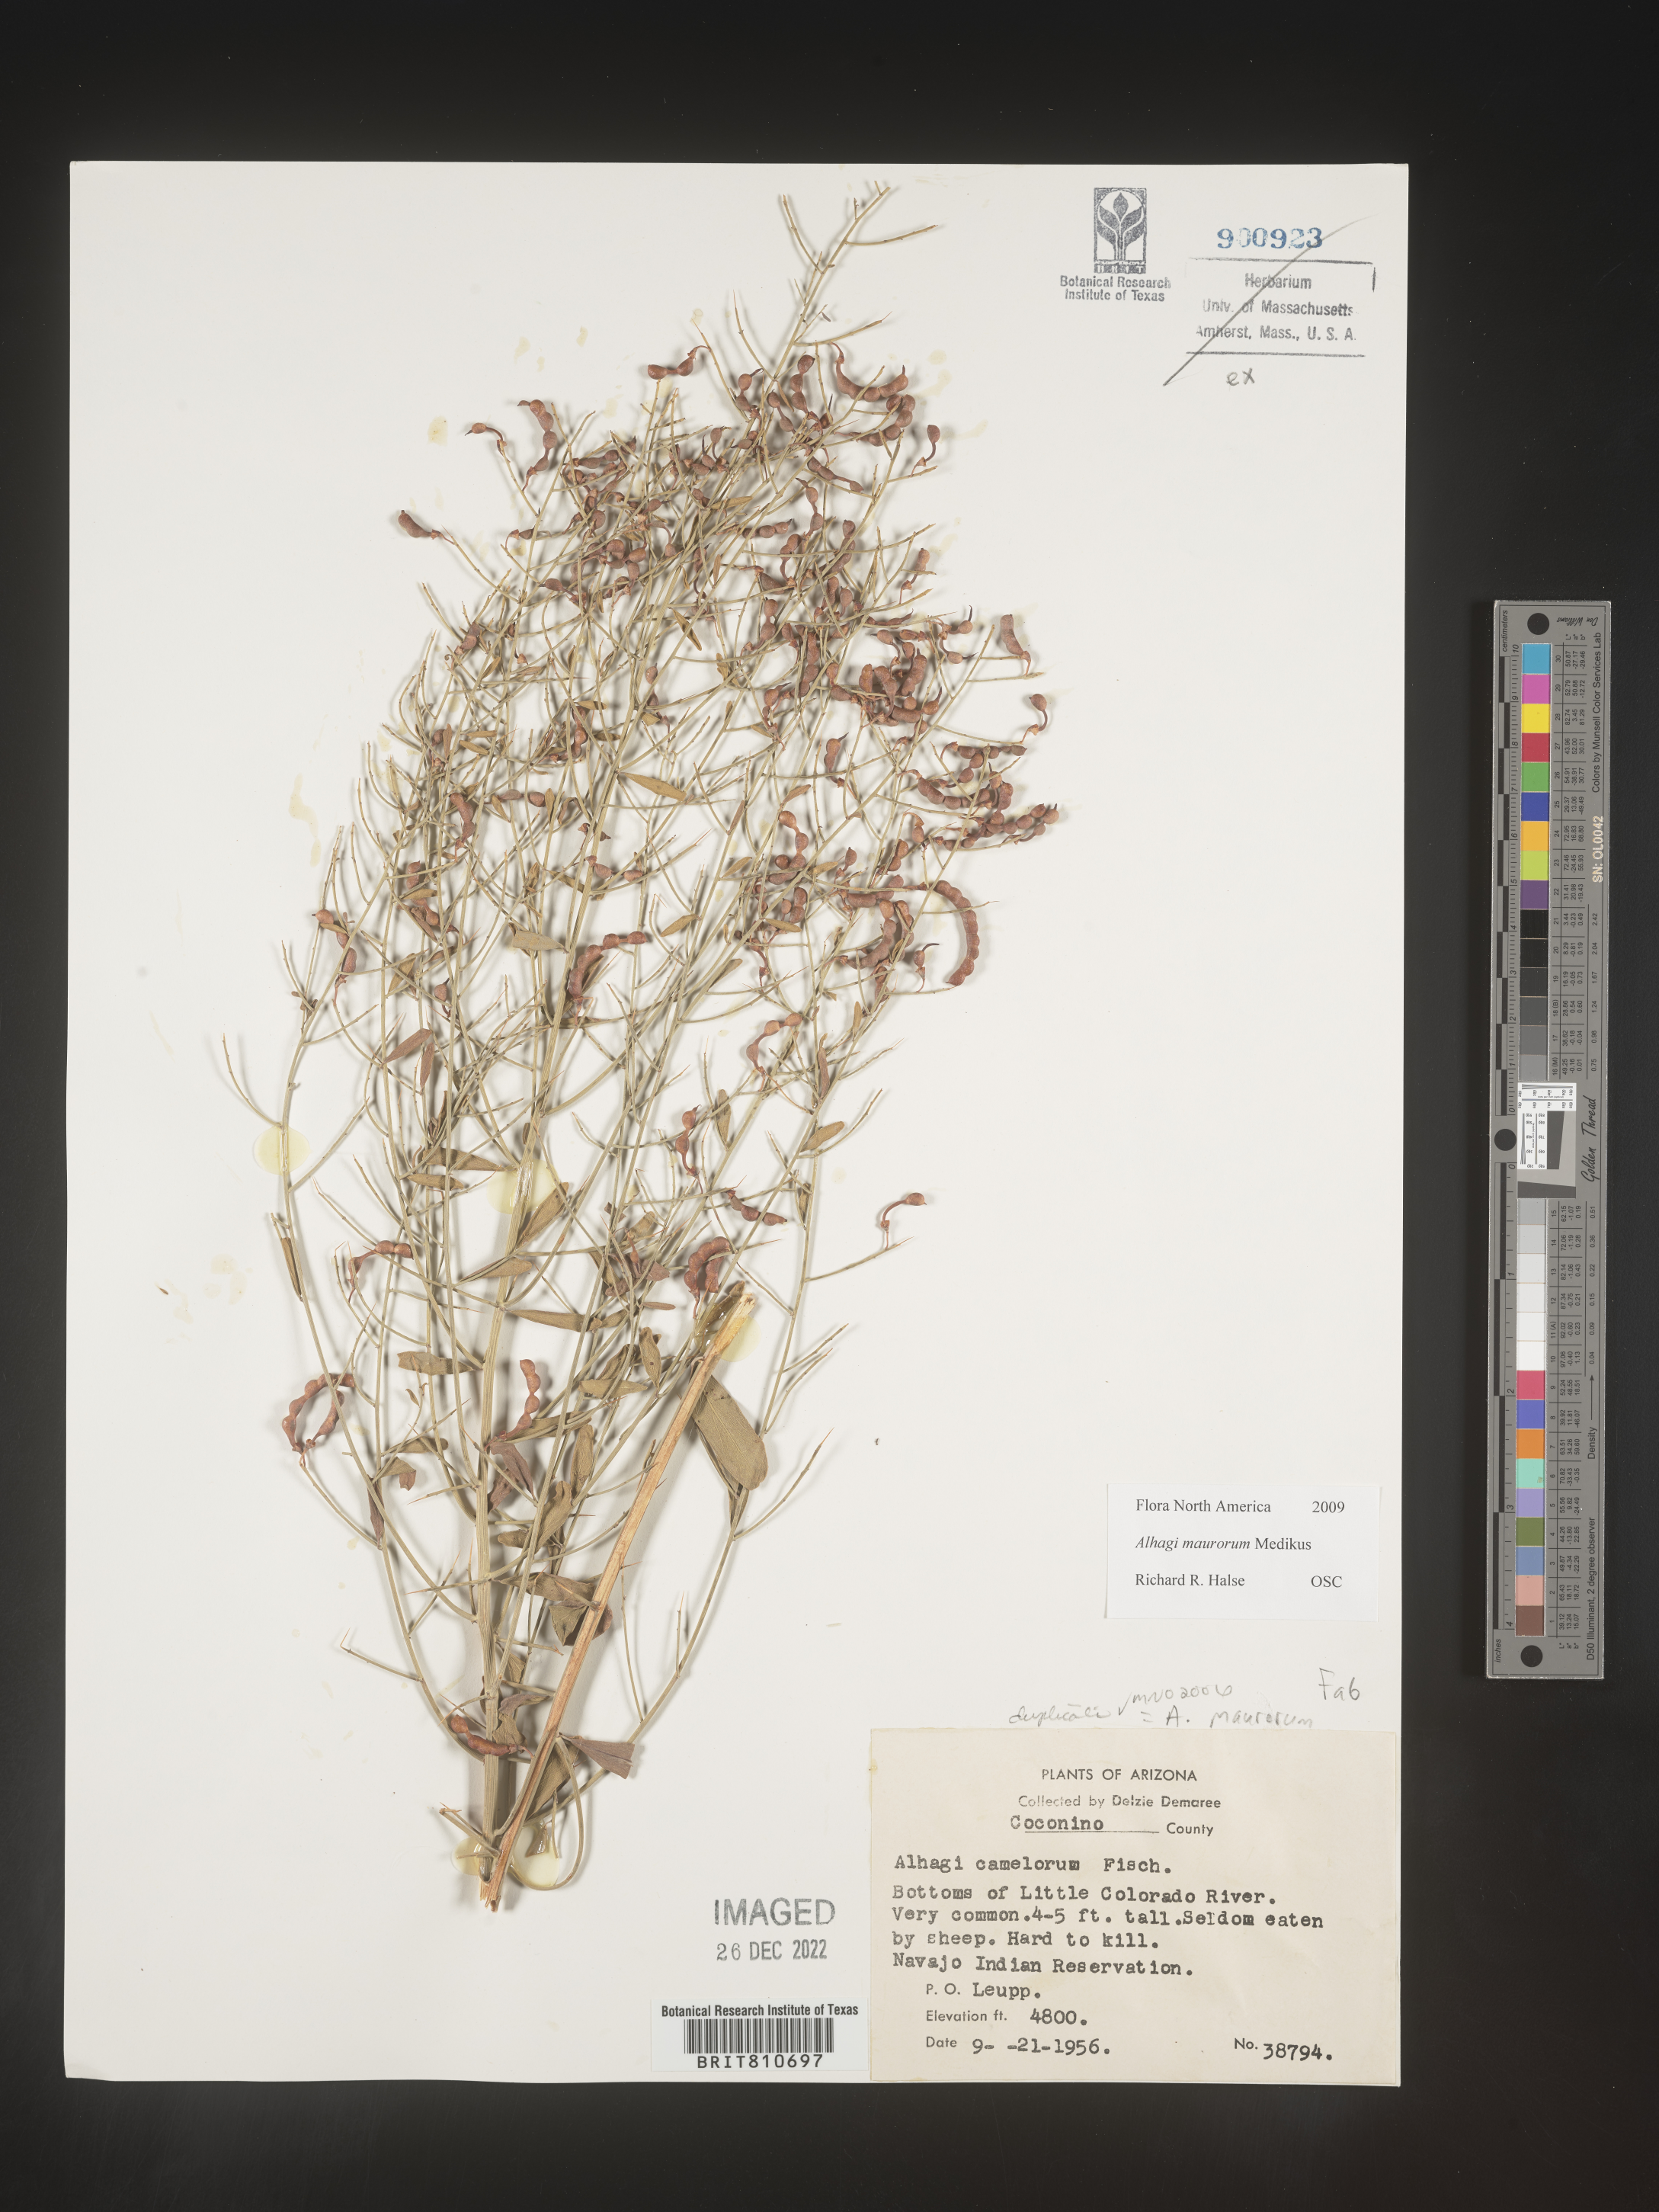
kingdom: Plantae
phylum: Tracheophyta
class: Magnoliopsida
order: Fabales
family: Fabaceae
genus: Alhagi
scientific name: Alhagi
